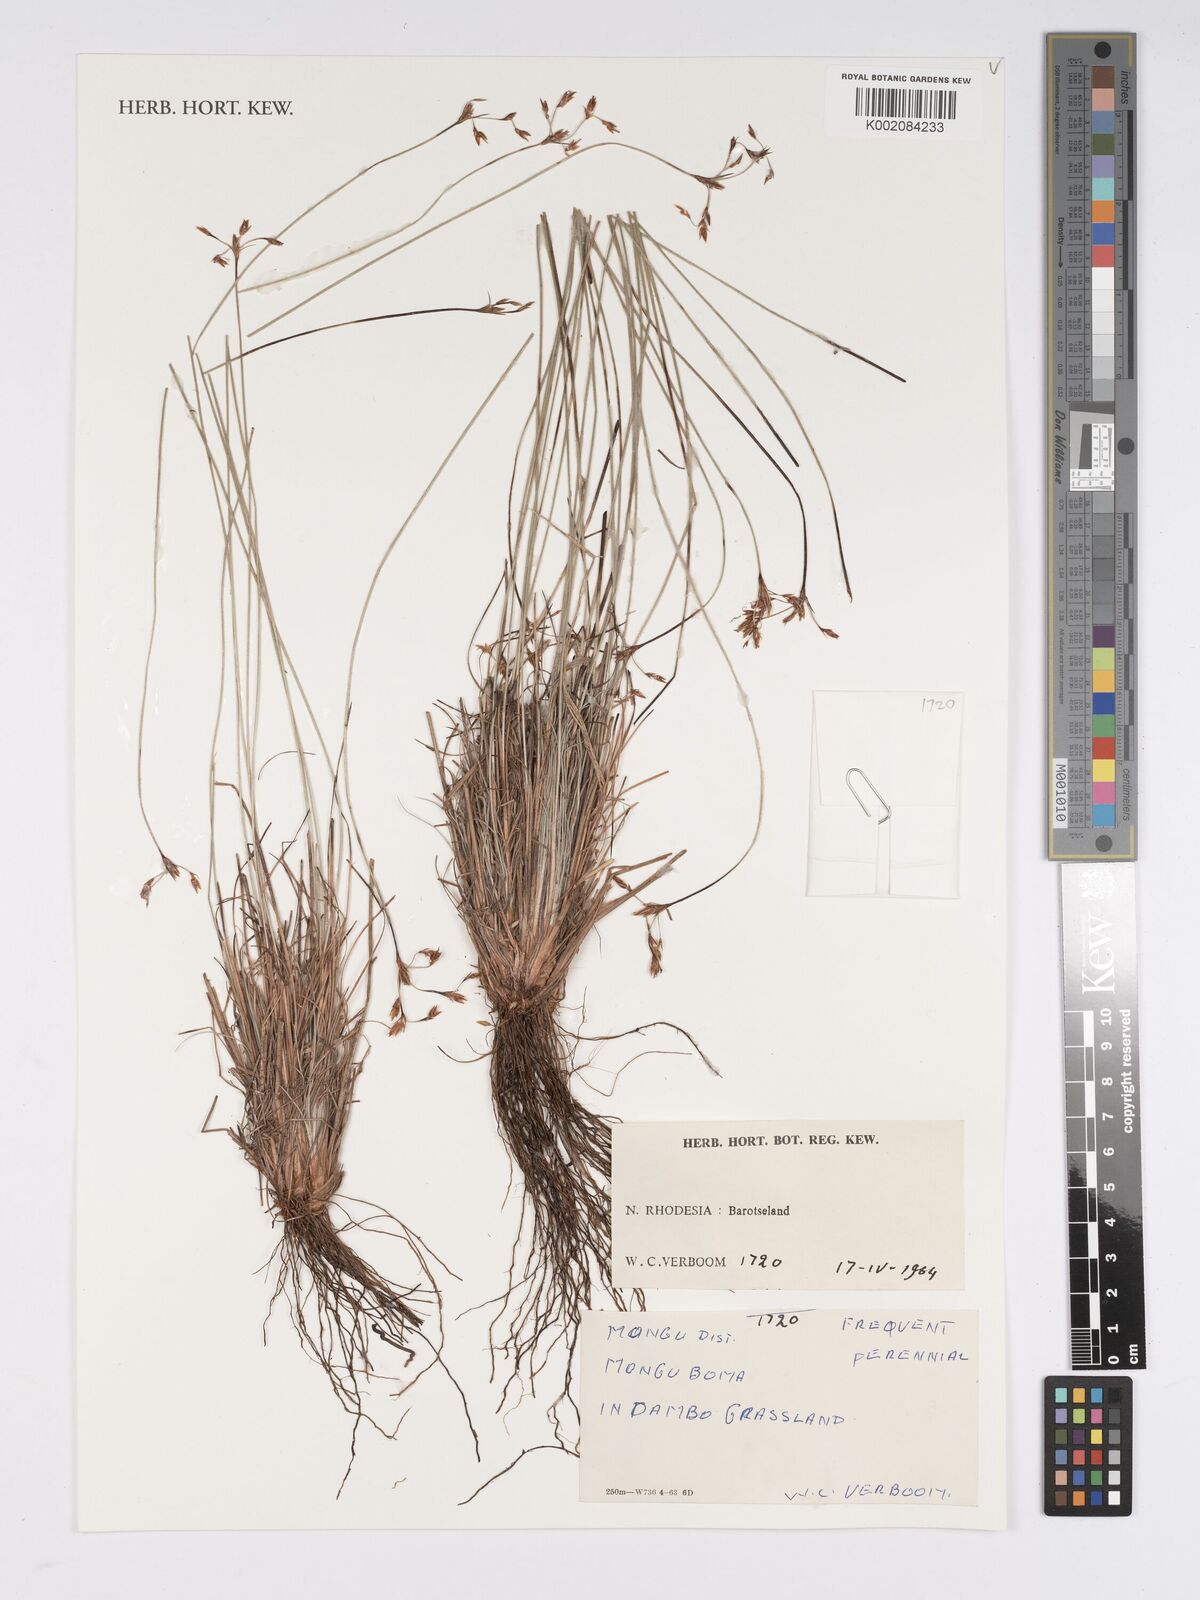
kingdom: Plantae
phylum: Tracheophyta
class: Liliopsida
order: Poales
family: Cyperaceae
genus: Bulbostylis
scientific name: Bulbostylis
